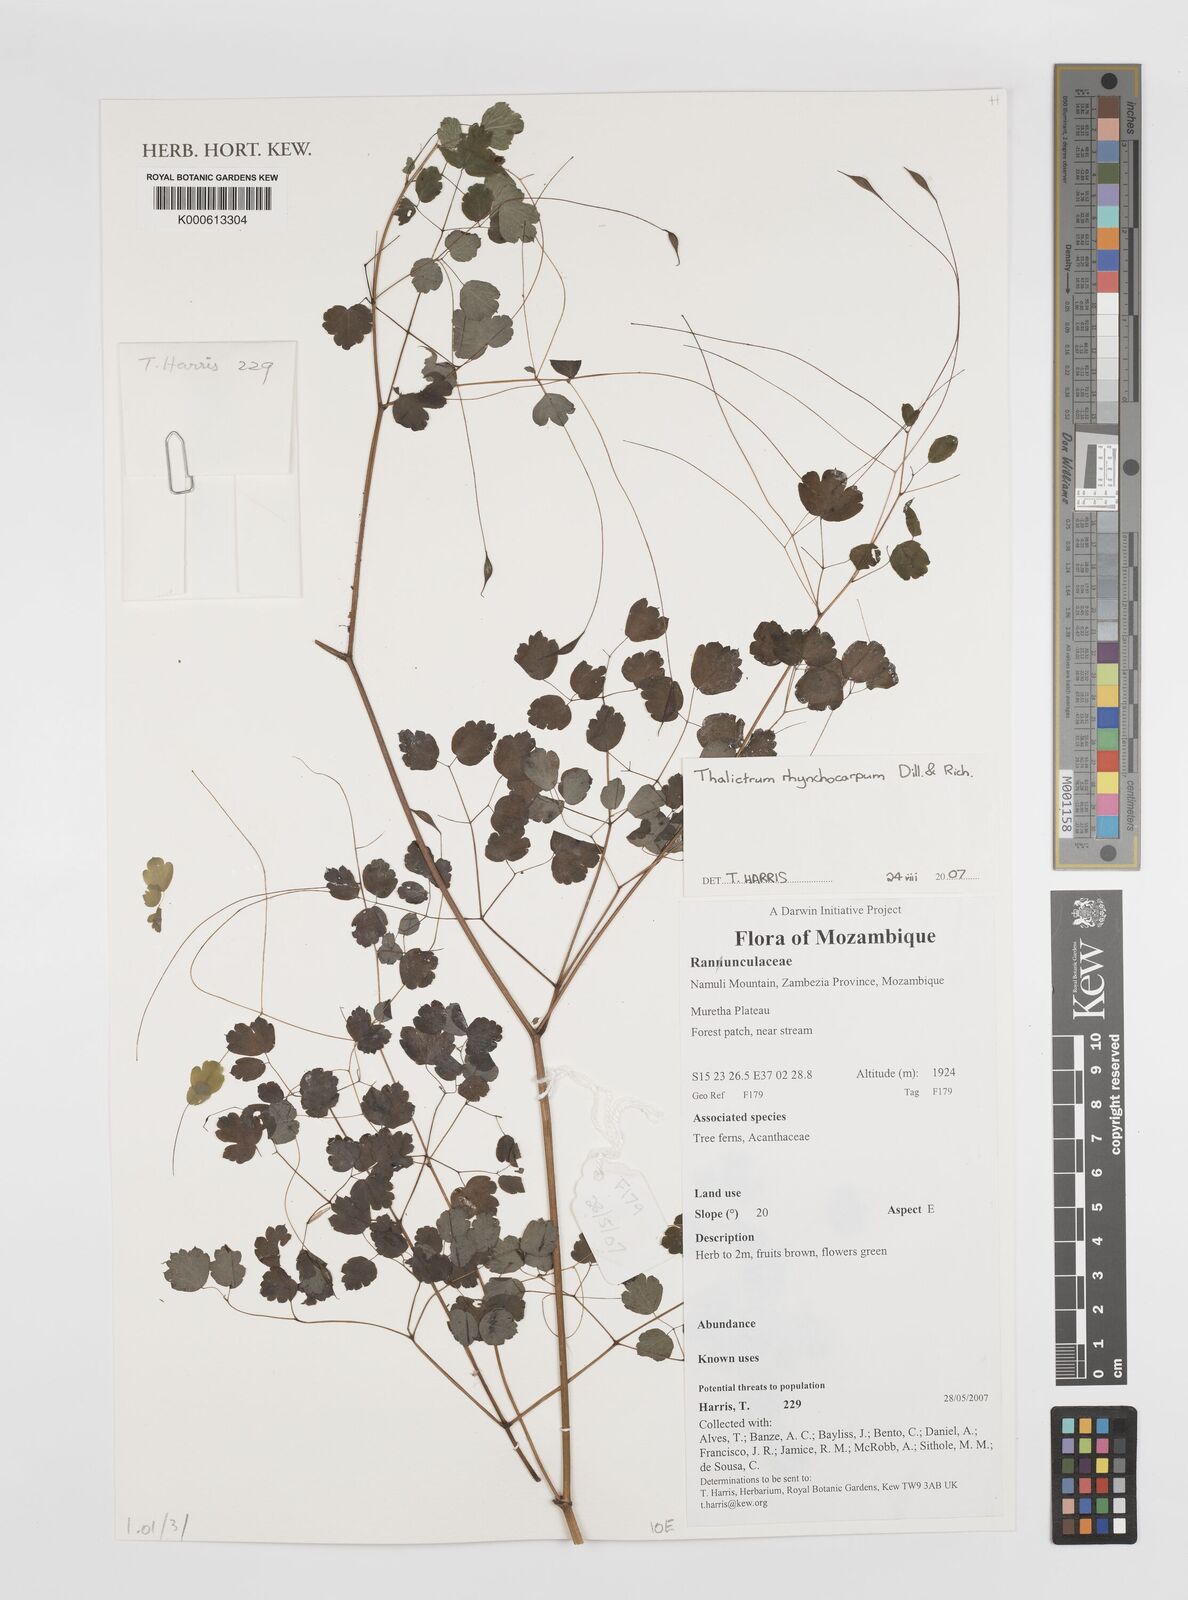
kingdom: Plantae
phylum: Tracheophyta
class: Magnoliopsida
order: Ranunculales
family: Ranunculaceae
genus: Thalictrum
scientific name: Thalictrum rhynchocarpum
